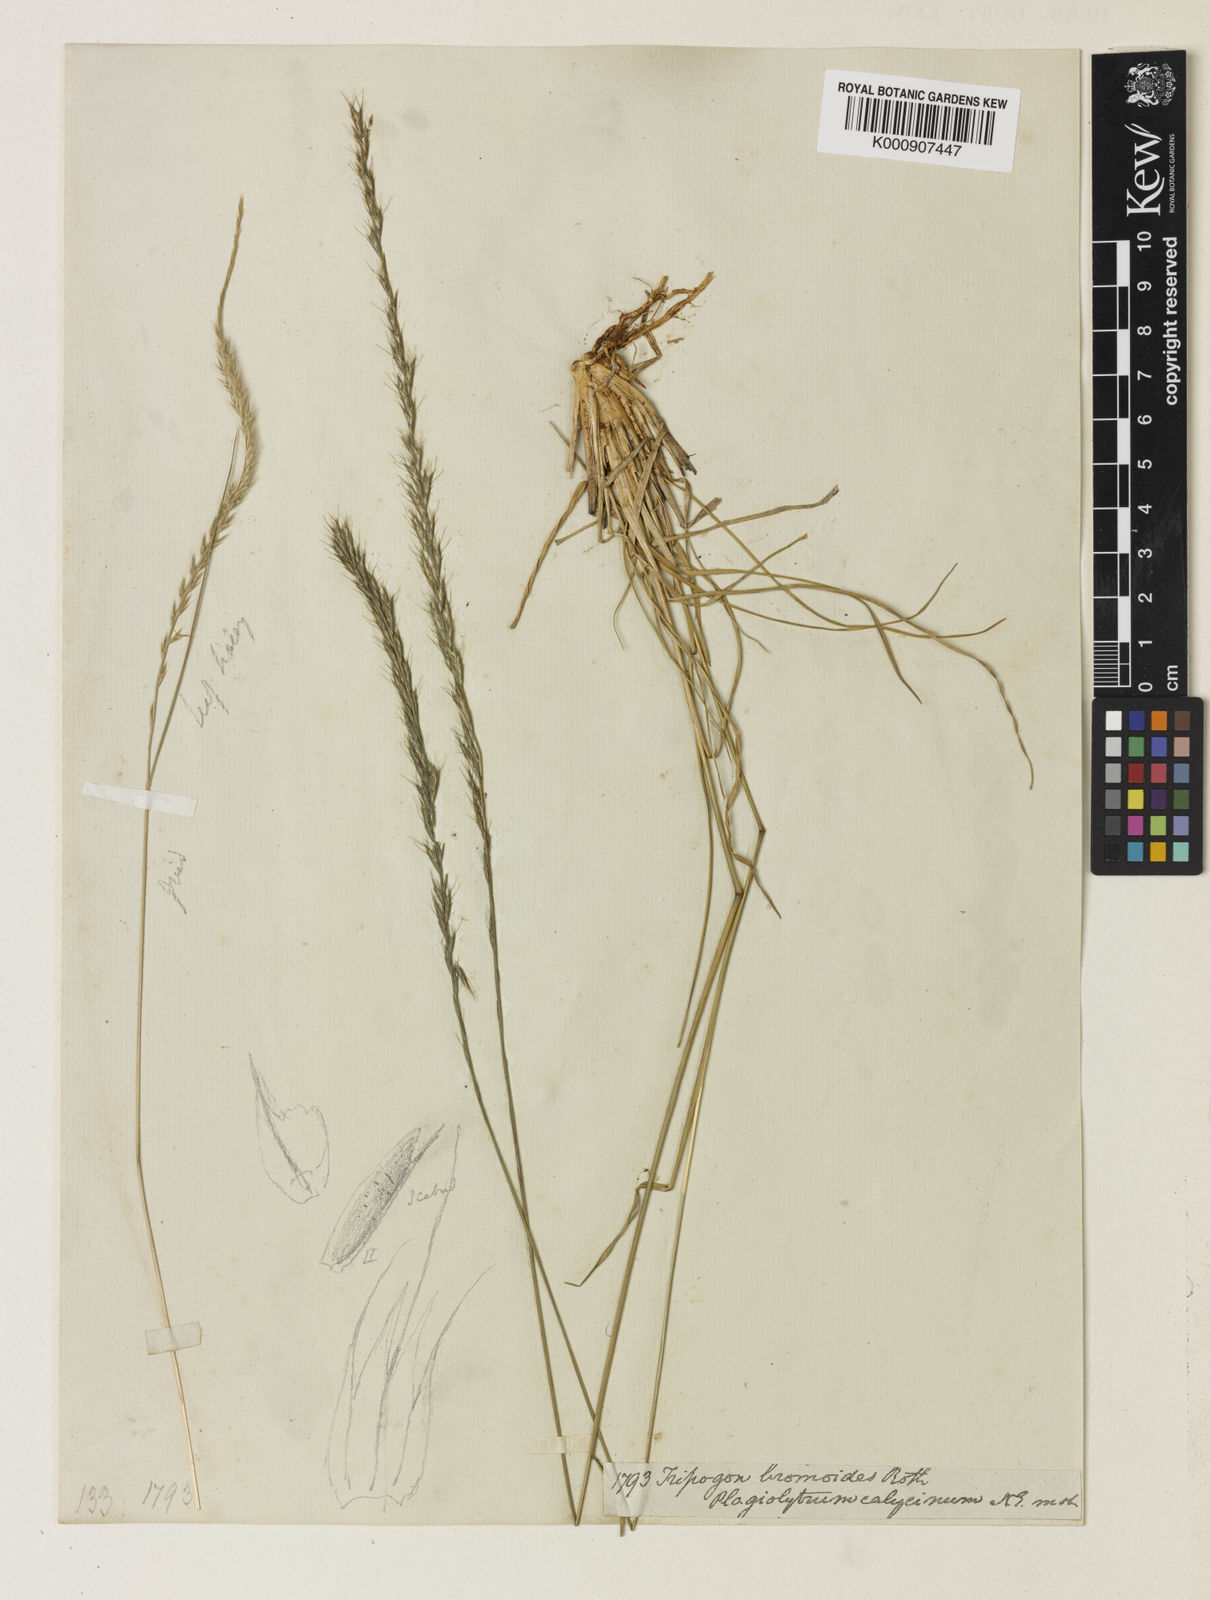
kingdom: Plantae
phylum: Tracheophyta
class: Liliopsida
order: Poales
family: Poaceae
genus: Tripogon
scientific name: Tripogon
